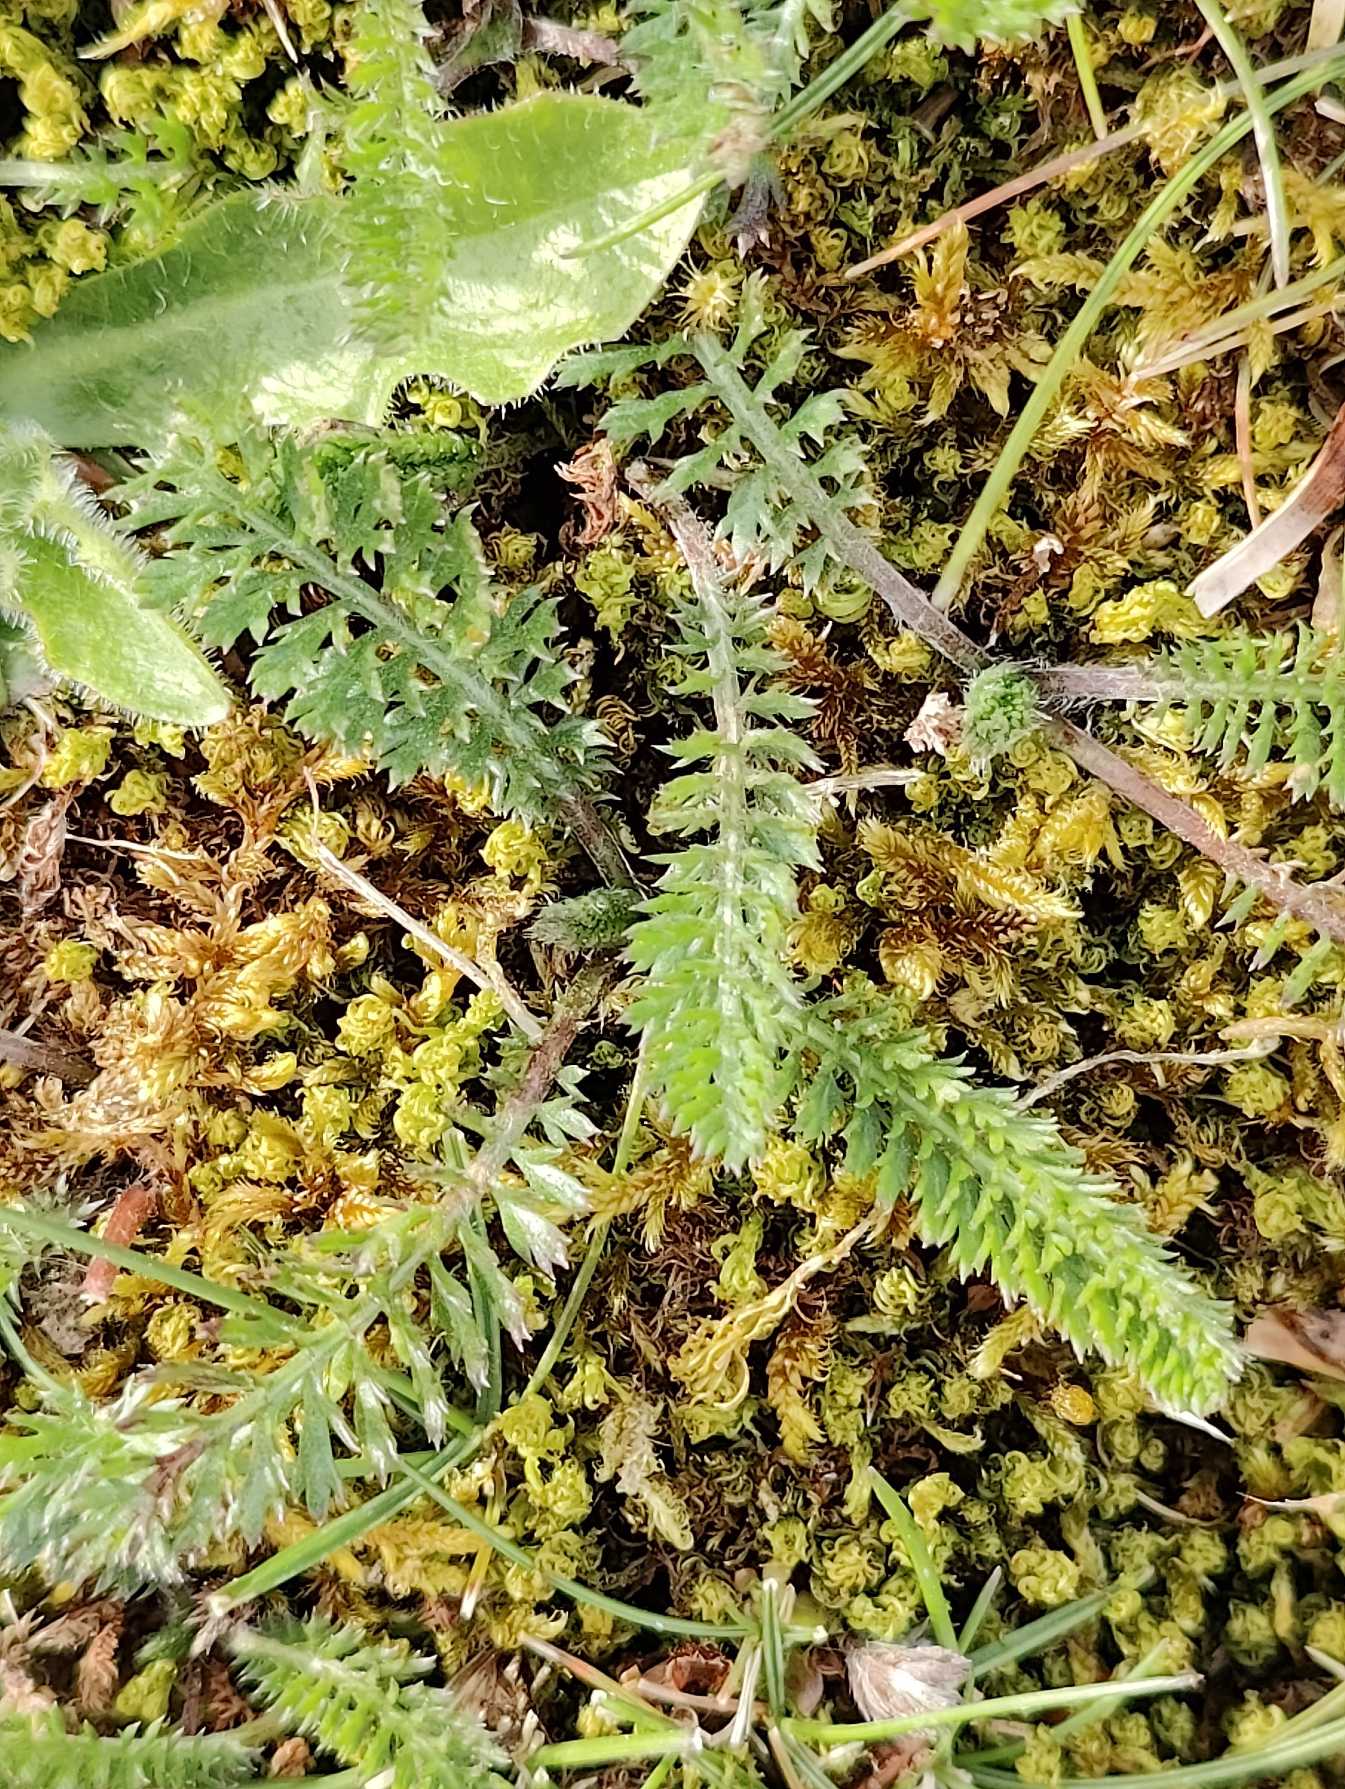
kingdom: Plantae
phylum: Tracheophyta
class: Magnoliopsida
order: Asterales
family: Asteraceae
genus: Achillea
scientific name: Achillea millefolium
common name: Almindelig røllike
